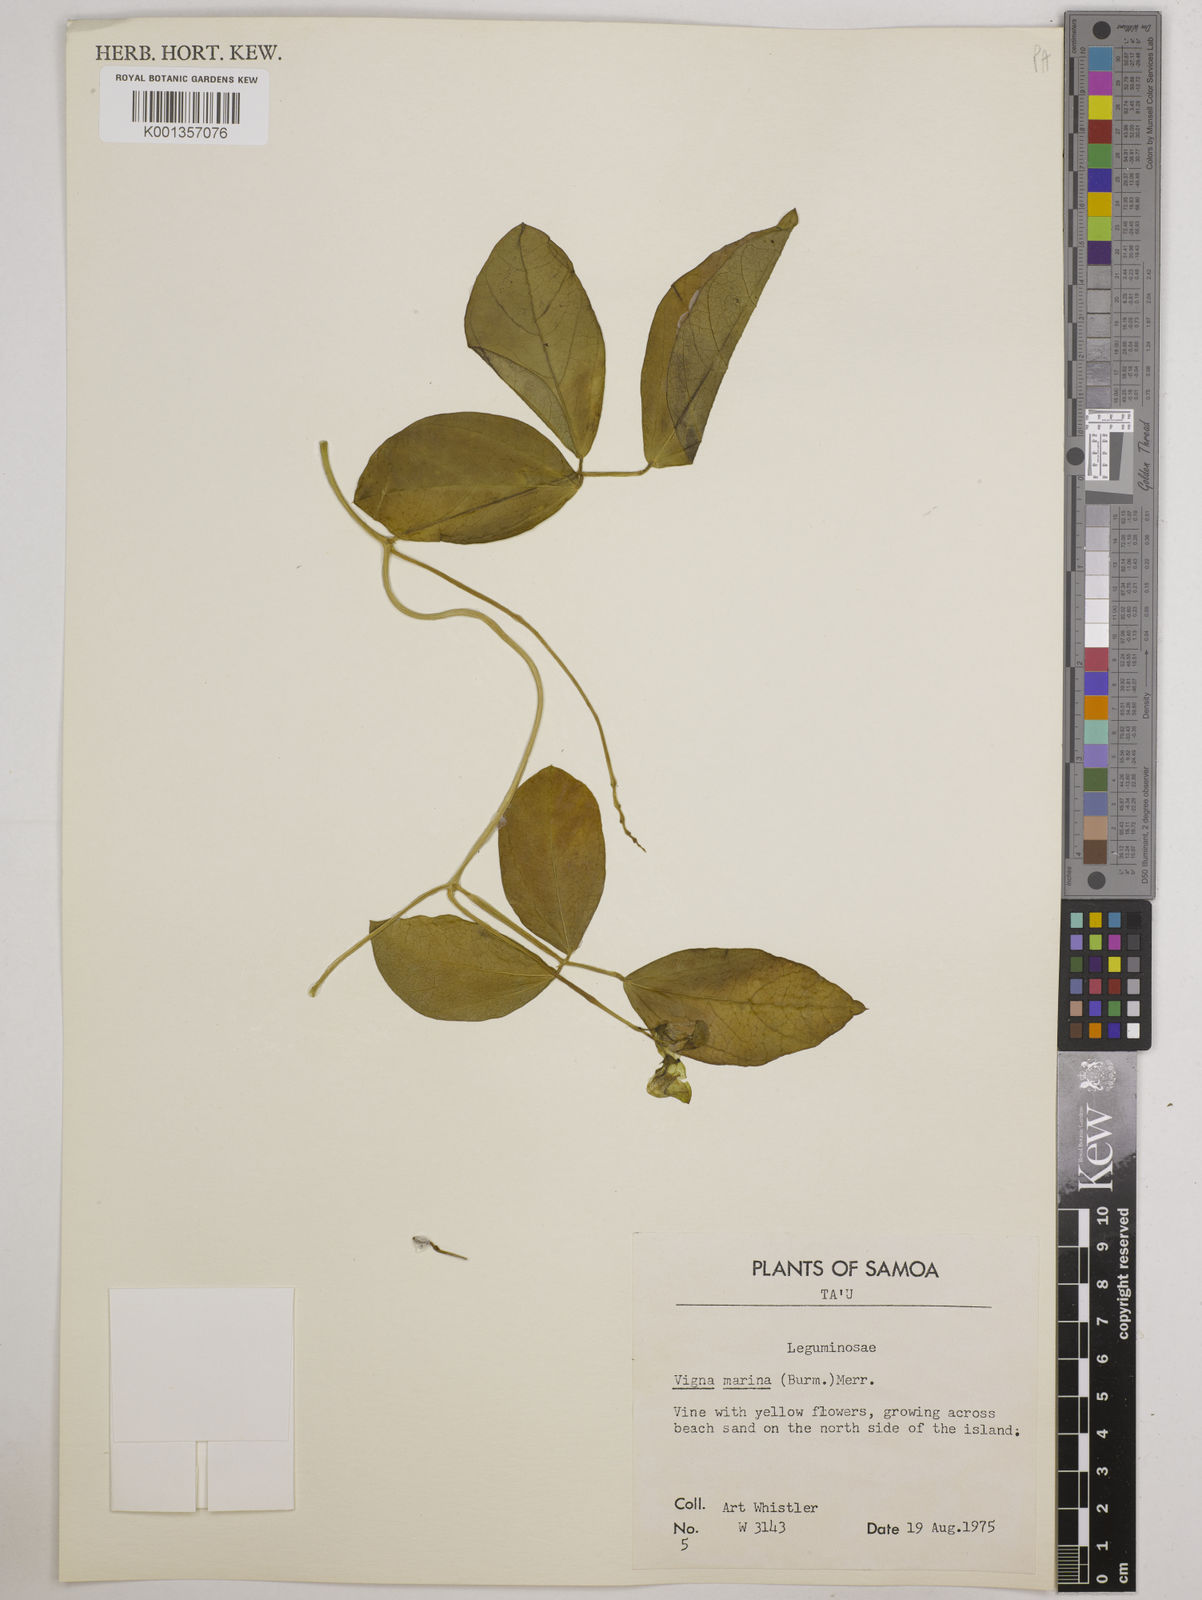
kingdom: Plantae
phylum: Tracheophyta
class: Magnoliopsida
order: Fabales
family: Fabaceae
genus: Vigna
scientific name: Vigna marina
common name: Dune-bean
